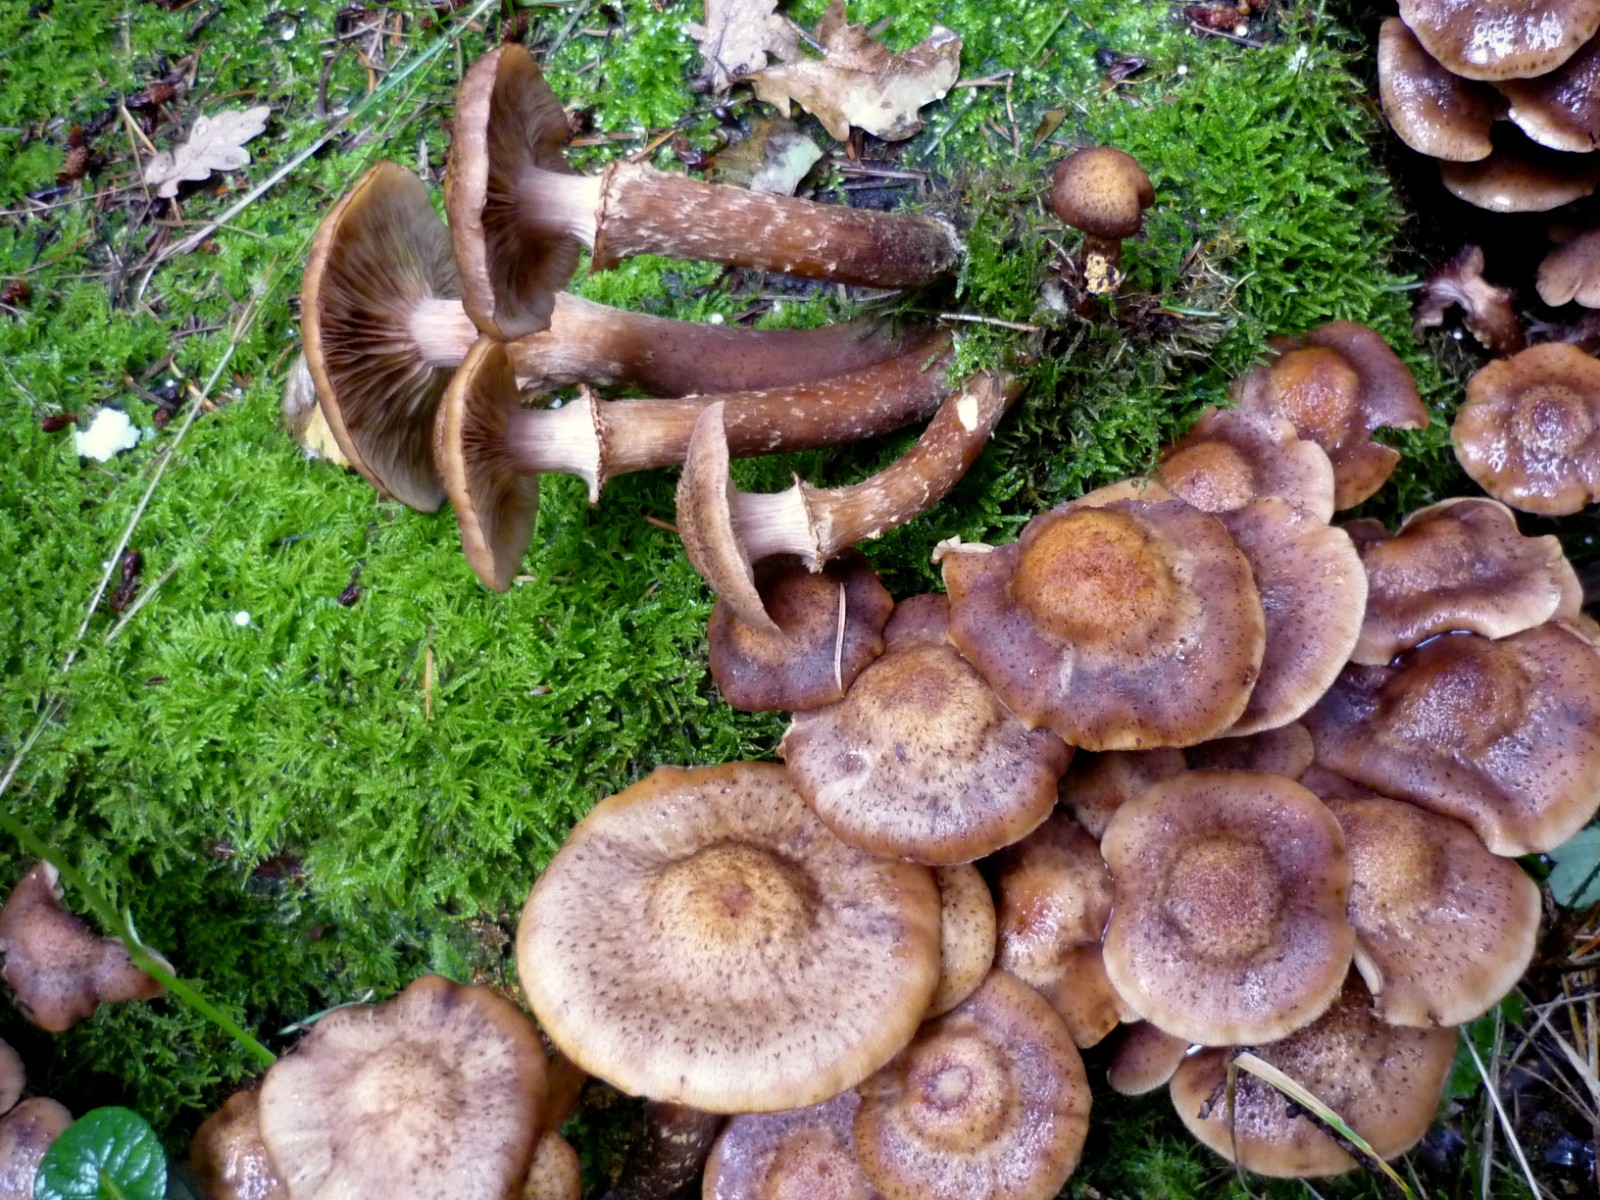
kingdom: Fungi
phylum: Basidiomycota
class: Agaricomycetes
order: Agaricales
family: Physalacriaceae
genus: Armillaria
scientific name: Armillaria ostoyae
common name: mørk honningsvamp
